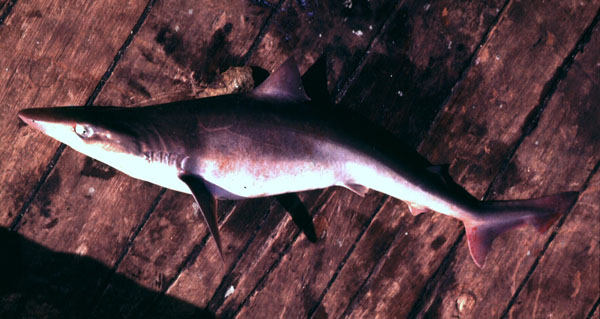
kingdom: Animalia
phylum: Chordata
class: Elasmobranchii
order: Carcharhiniformes
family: Triakidae
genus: Galeorhinus
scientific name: Galeorhinus galeus
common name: Tope
